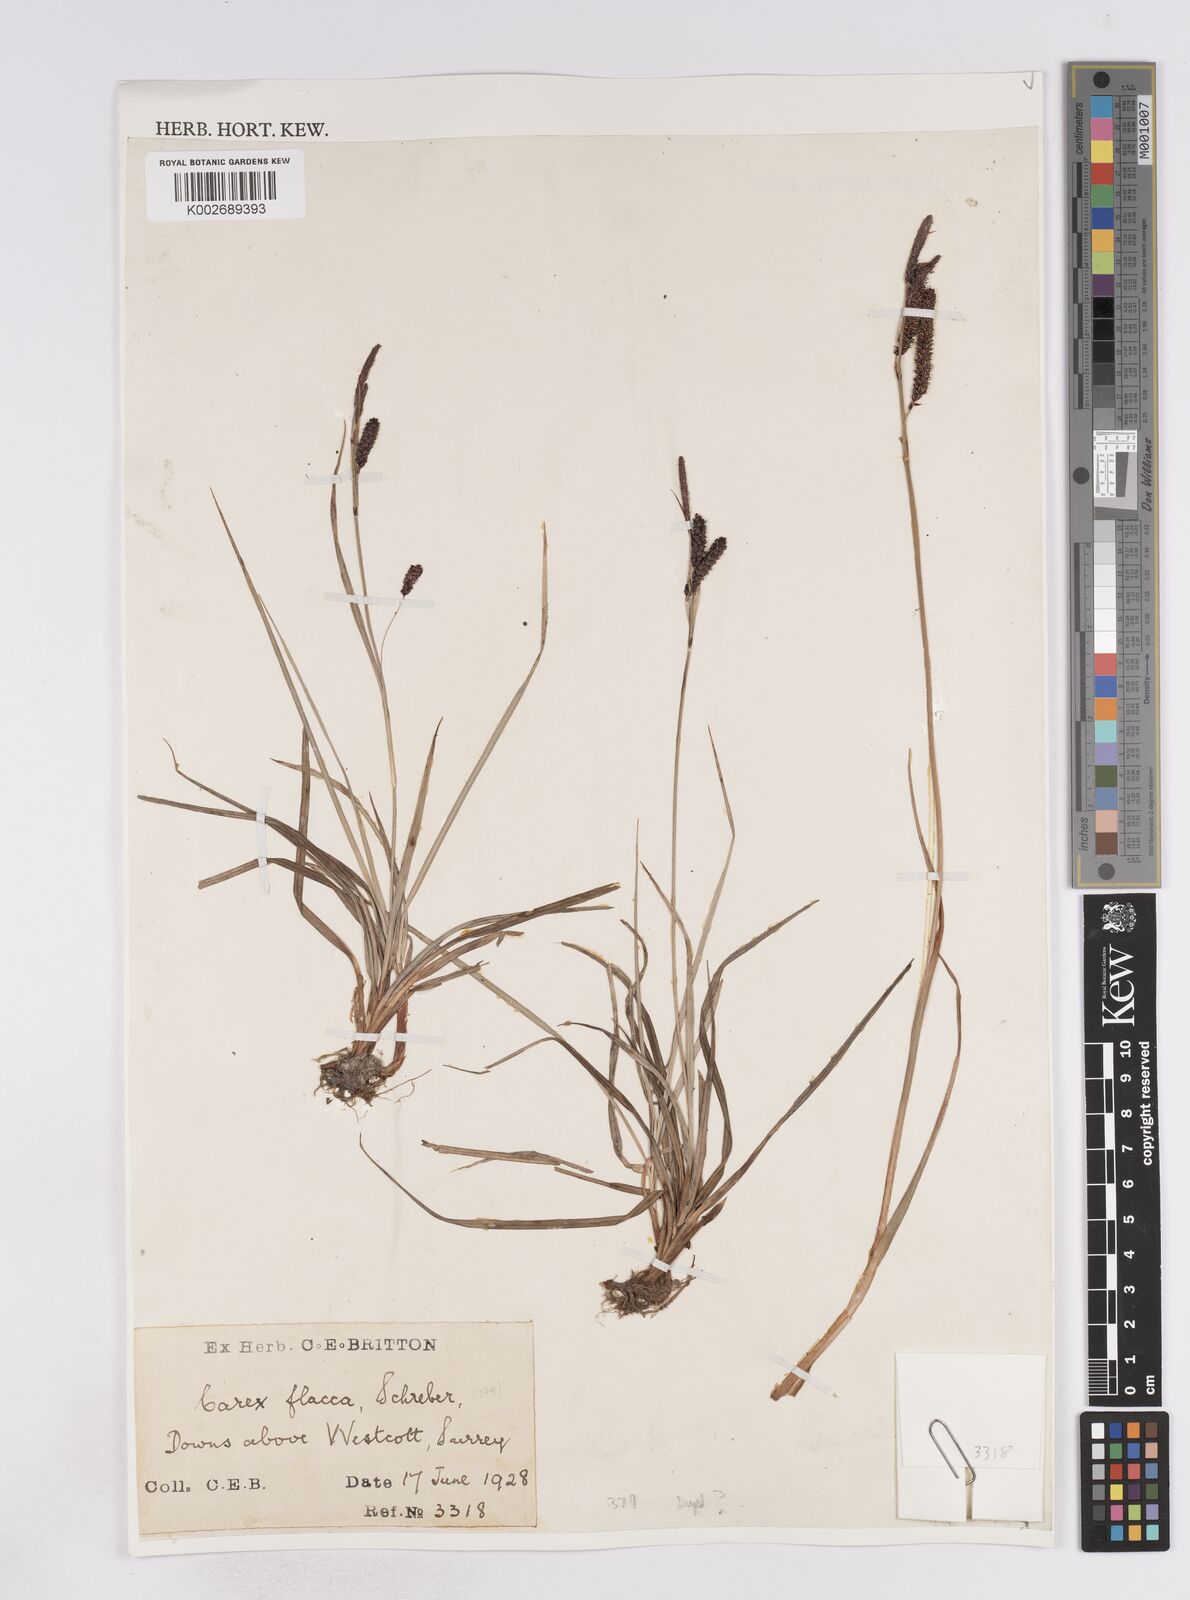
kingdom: Plantae
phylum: Tracheophyta
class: Liliopsida
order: Poales
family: Cyperaceae
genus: Carex
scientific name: Carex flacca
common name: Glaucous sedge
